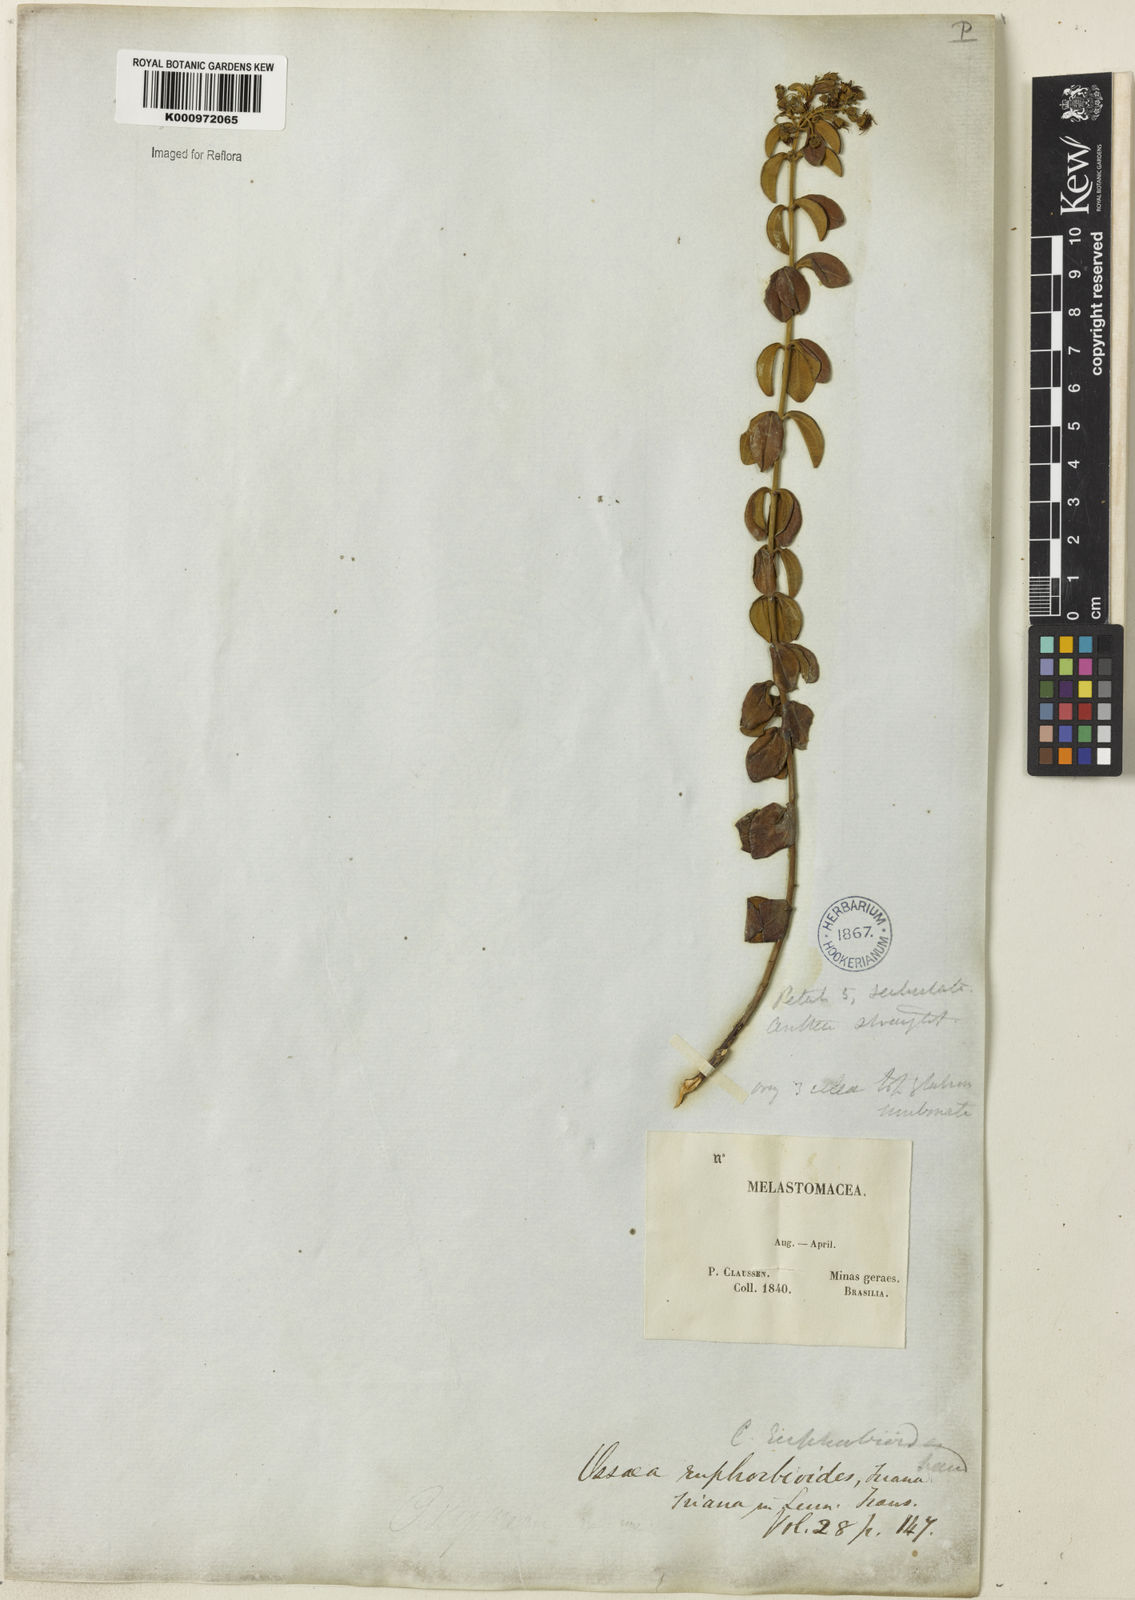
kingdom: Plantae
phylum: Tracheophyta
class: Magnoliopsida
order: Myrtales
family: Melastomataceae
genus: Miconia
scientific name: Miconia euphorbioides
